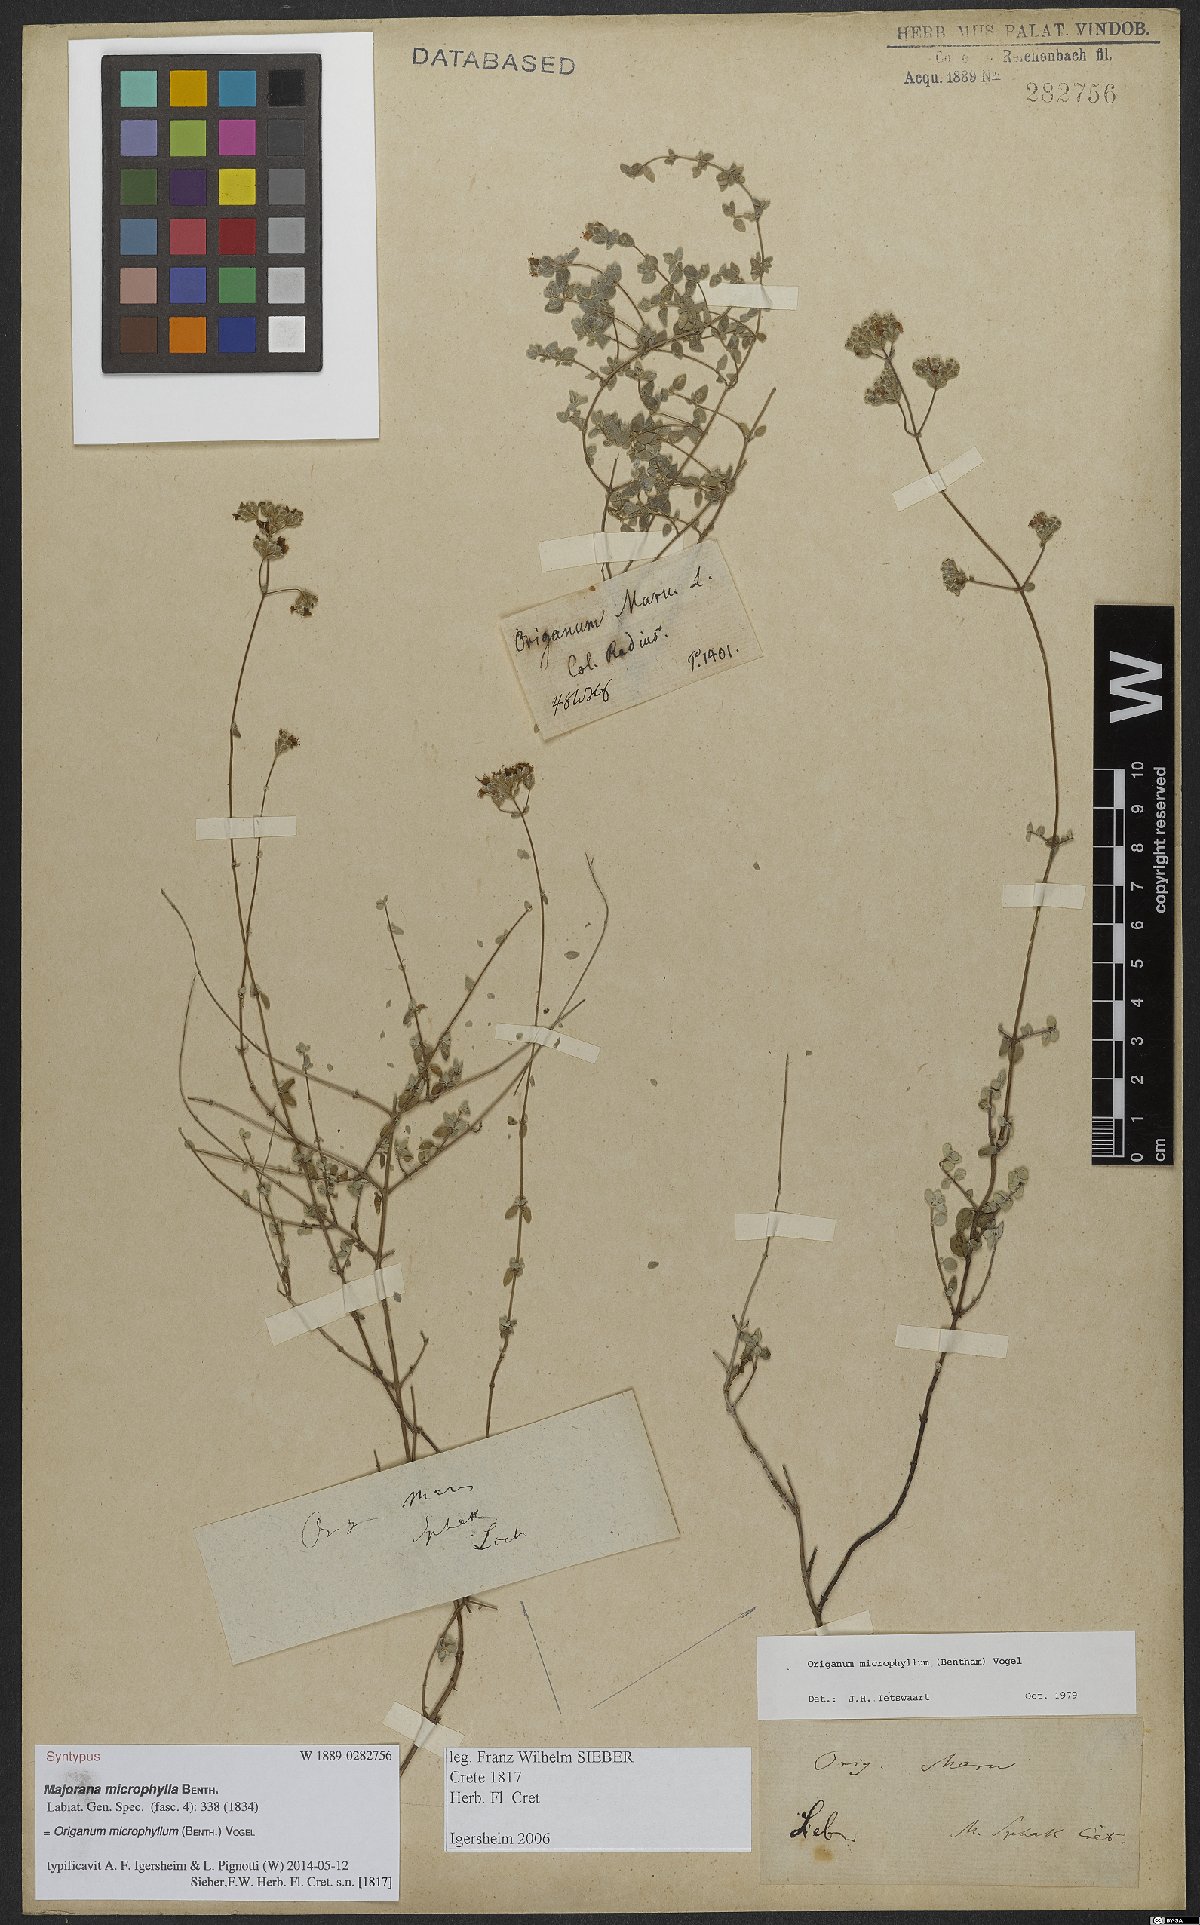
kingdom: Plantae
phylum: Tracheophyta
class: Magnoliopsida
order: Lamiales
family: Lamiaceae
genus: Origanum
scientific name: Origanum microphyllum
